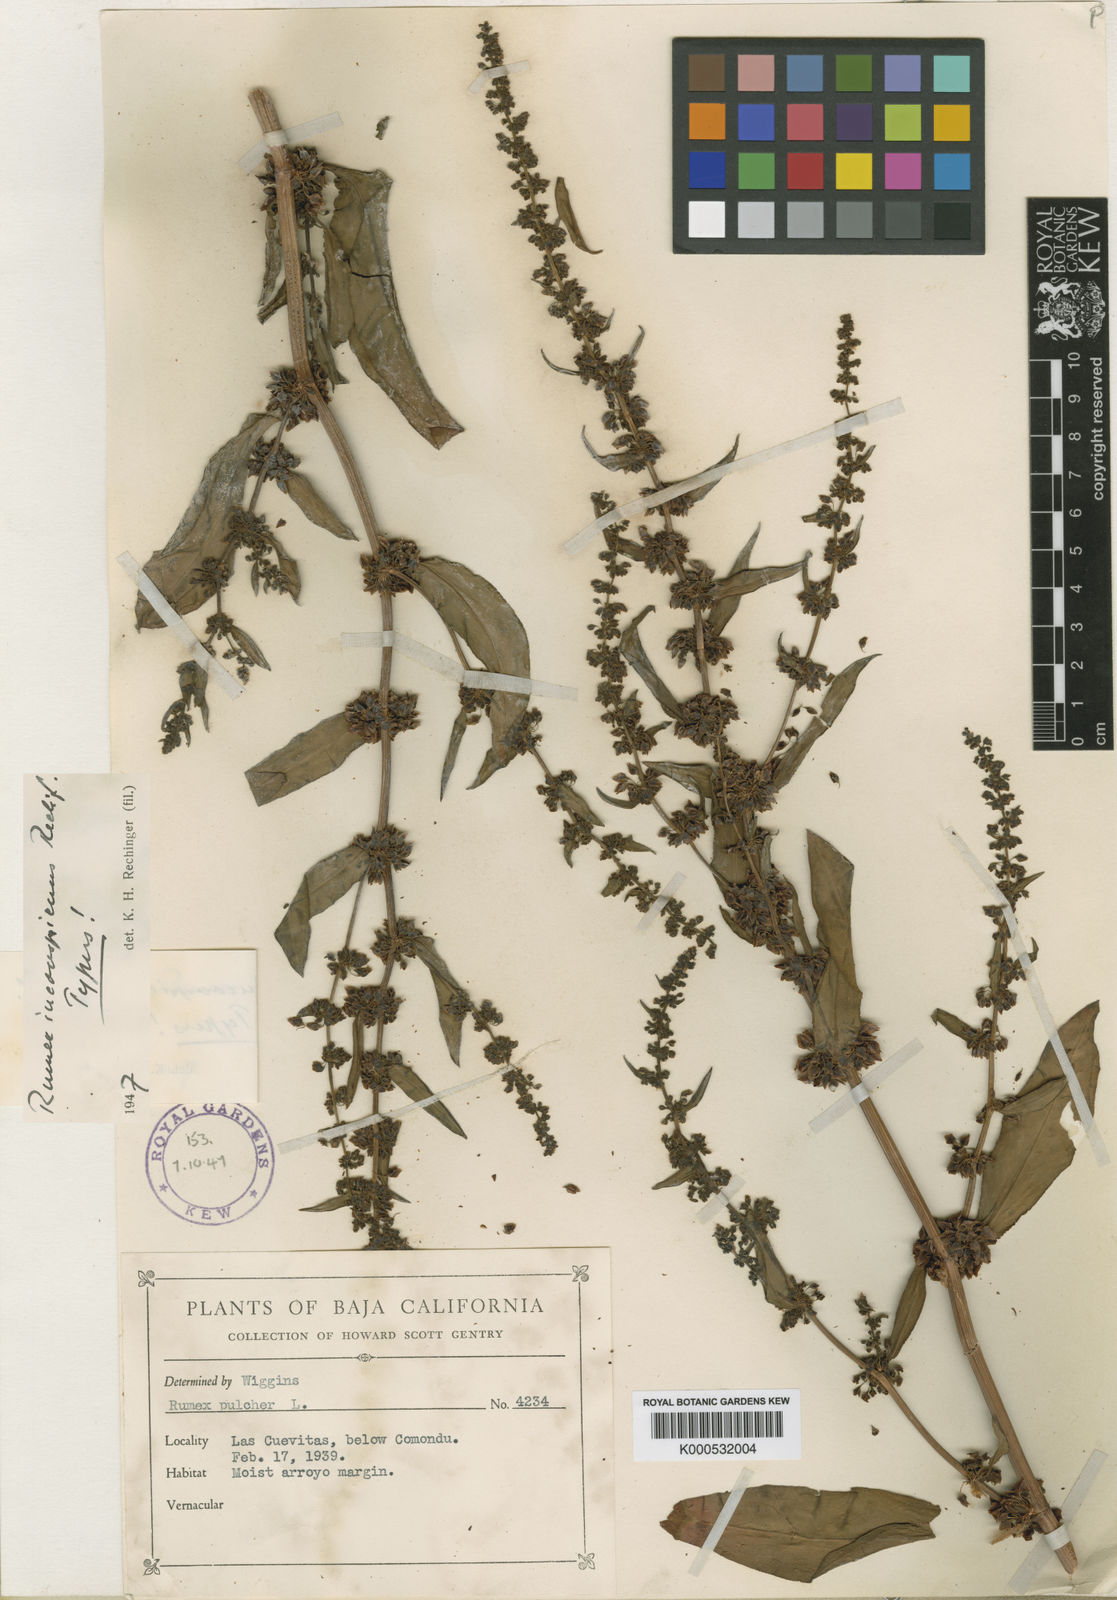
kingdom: Plantae
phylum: Tracheophyta
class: Magnoliopsida
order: Caryophyllales
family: Polygonaceae
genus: Rumex
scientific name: Rumex inconspicuus
